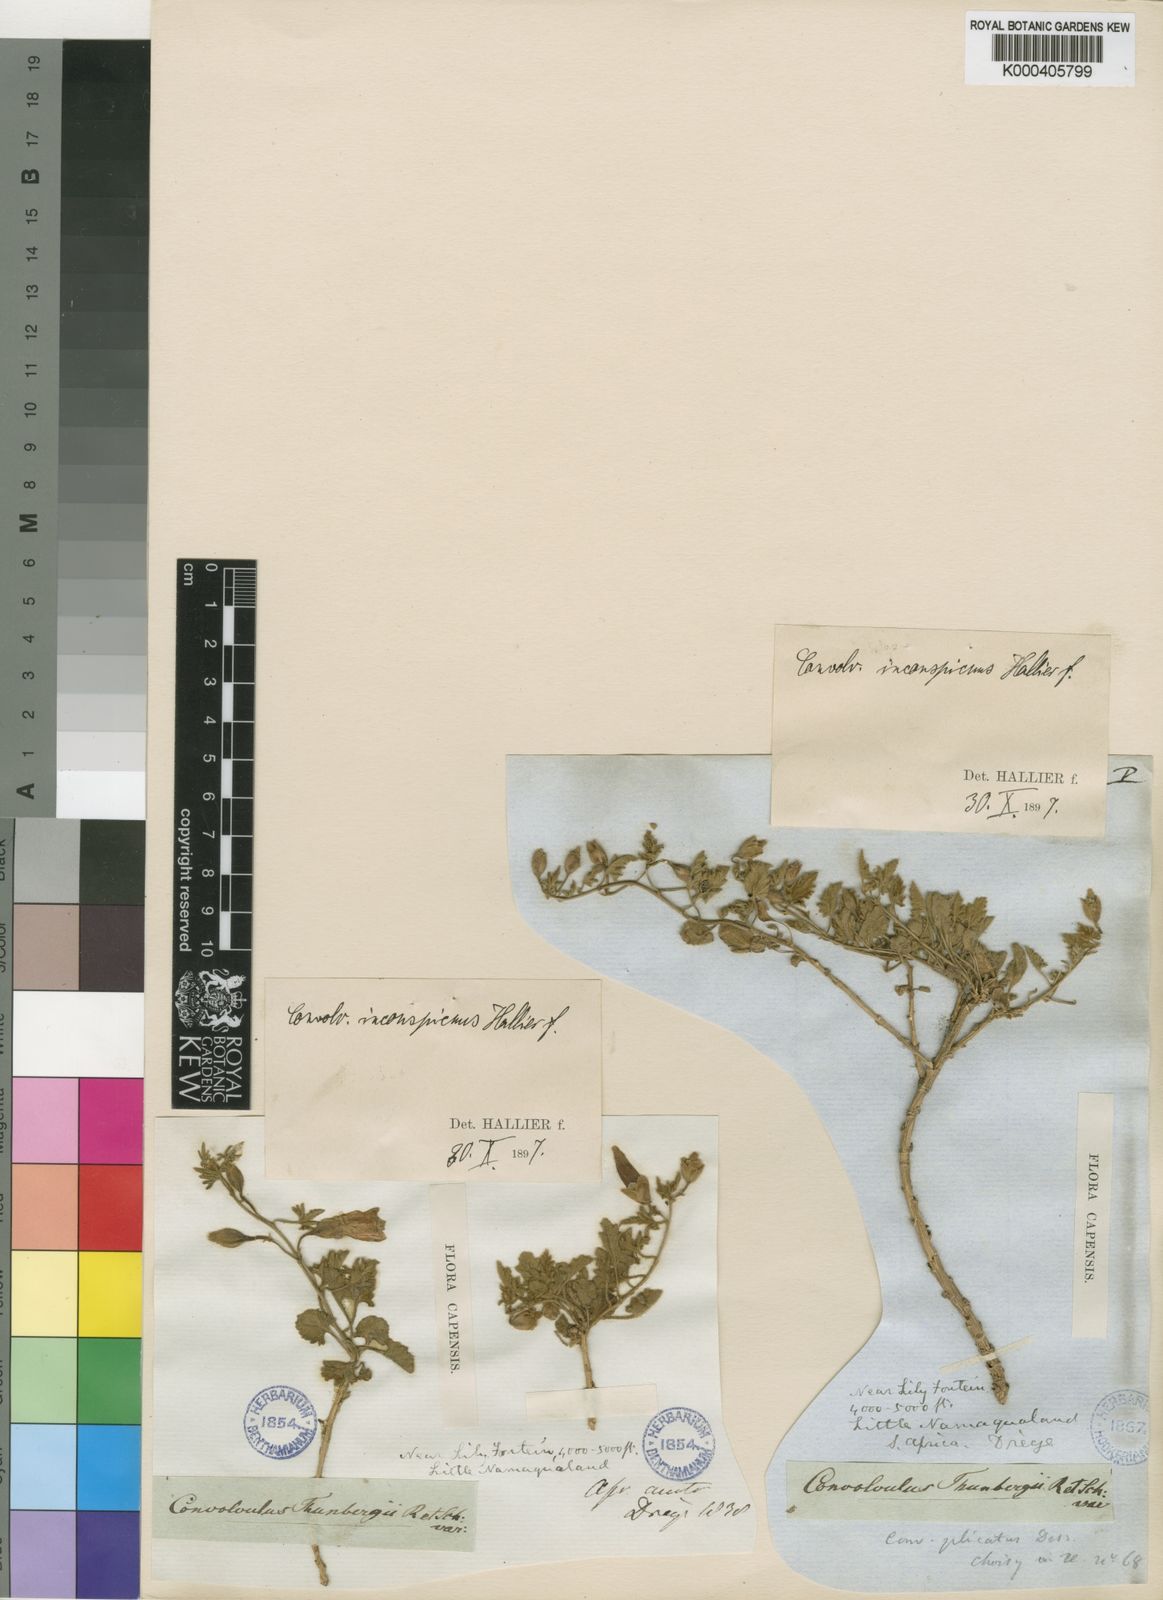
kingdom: Plantae
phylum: Tracheophyta
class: Magnoliopsida
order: Solanales
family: Convolvulaceae
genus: Convolvulus
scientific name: Convolvulus capensis
